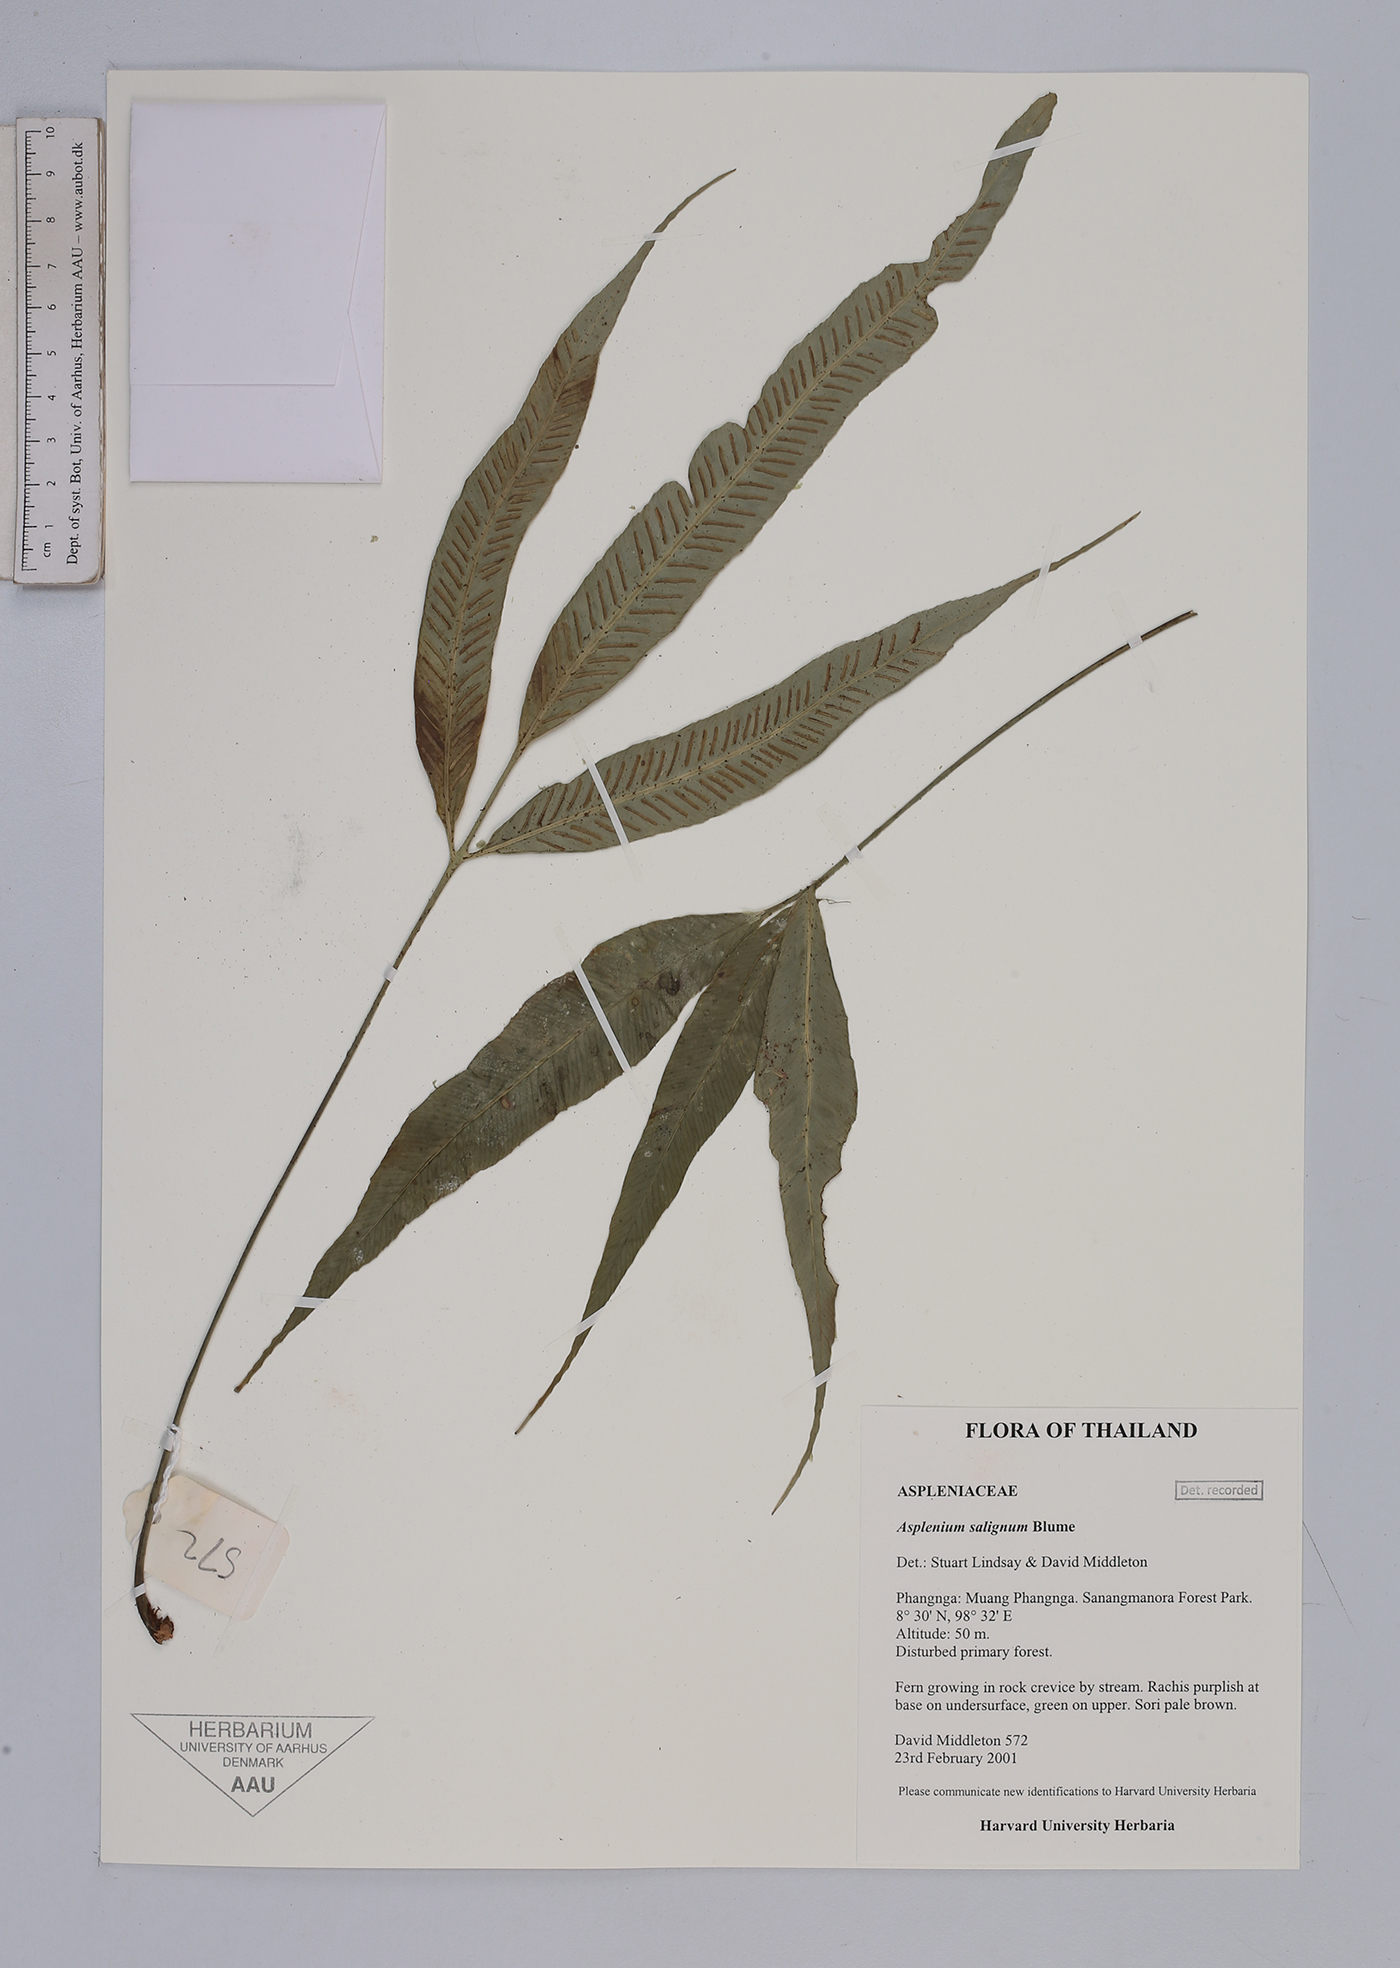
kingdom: Plantae
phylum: Tracheophyta
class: Polypodiopsida
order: Polypodiales
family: Aspleniaceae
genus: Asplenium
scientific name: Asplenium salignum
